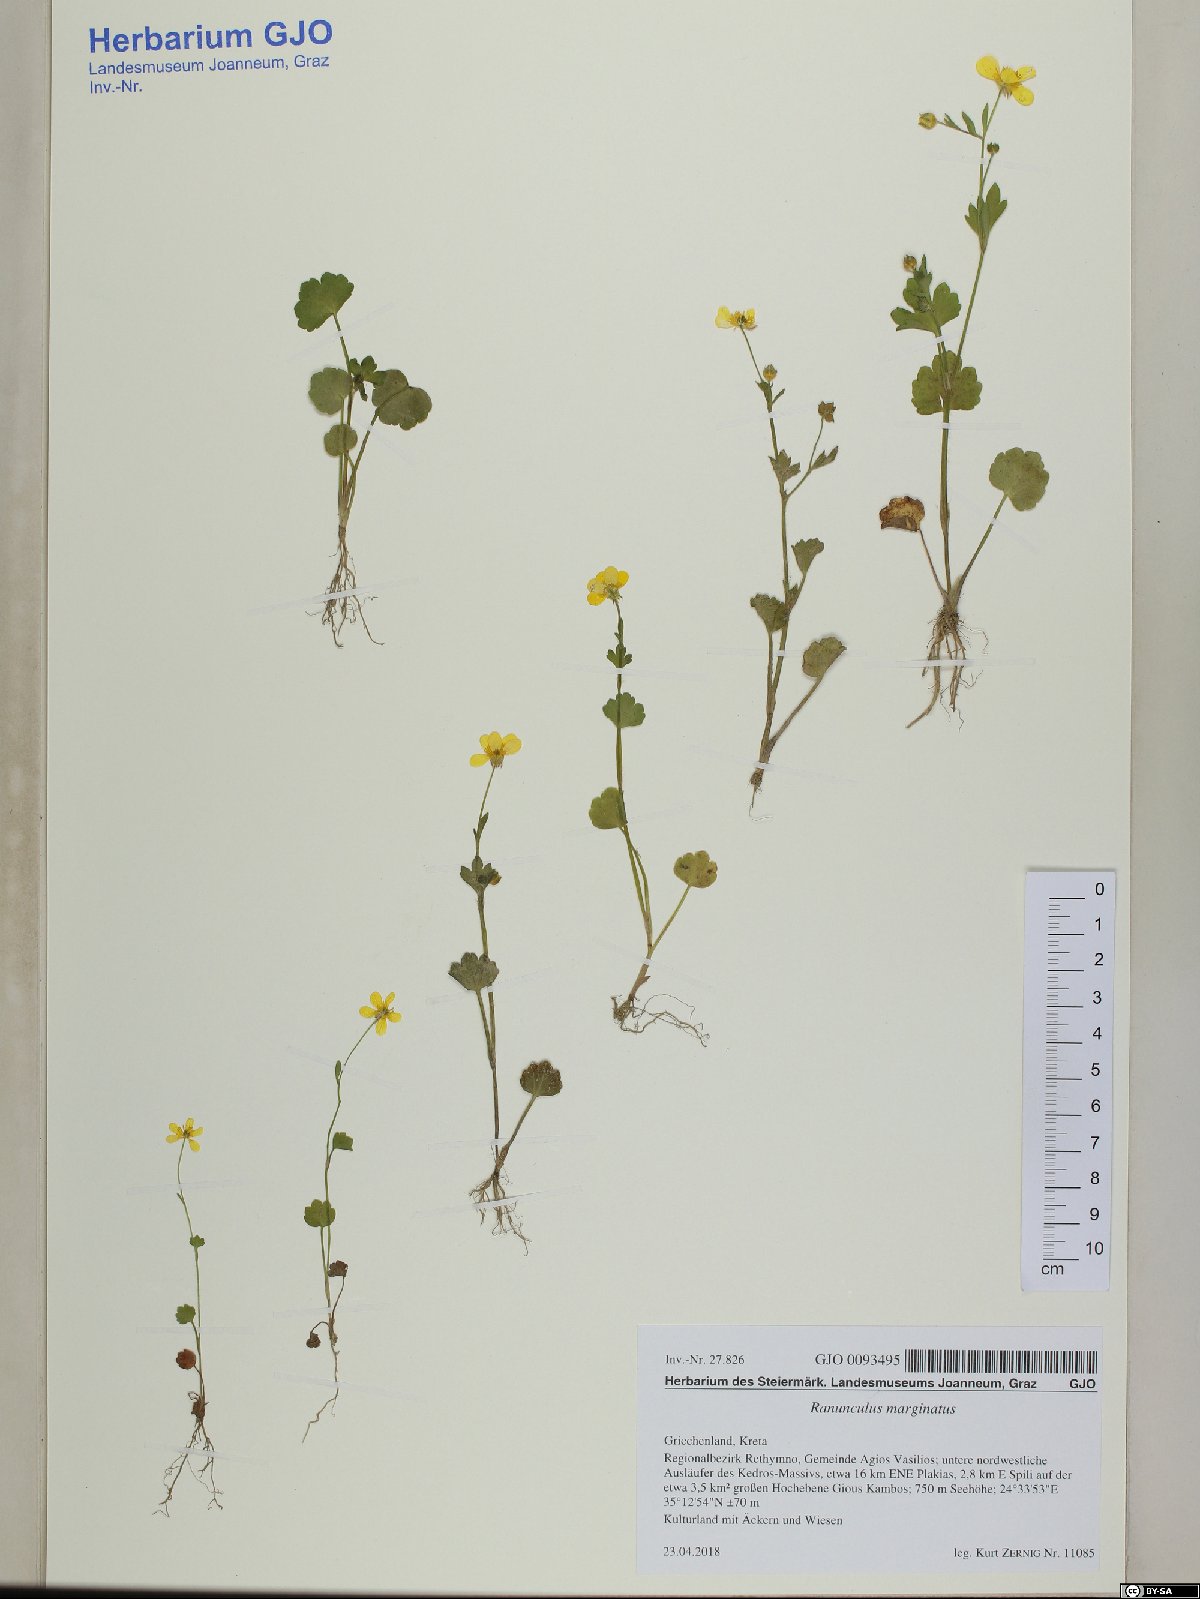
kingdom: Plantae
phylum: Tracheophyta
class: Magnoliopsida
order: Ranunculales
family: Ranunculaceae
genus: Ranunculus
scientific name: Ranunculus marginatus
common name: St. martin's buttercup
